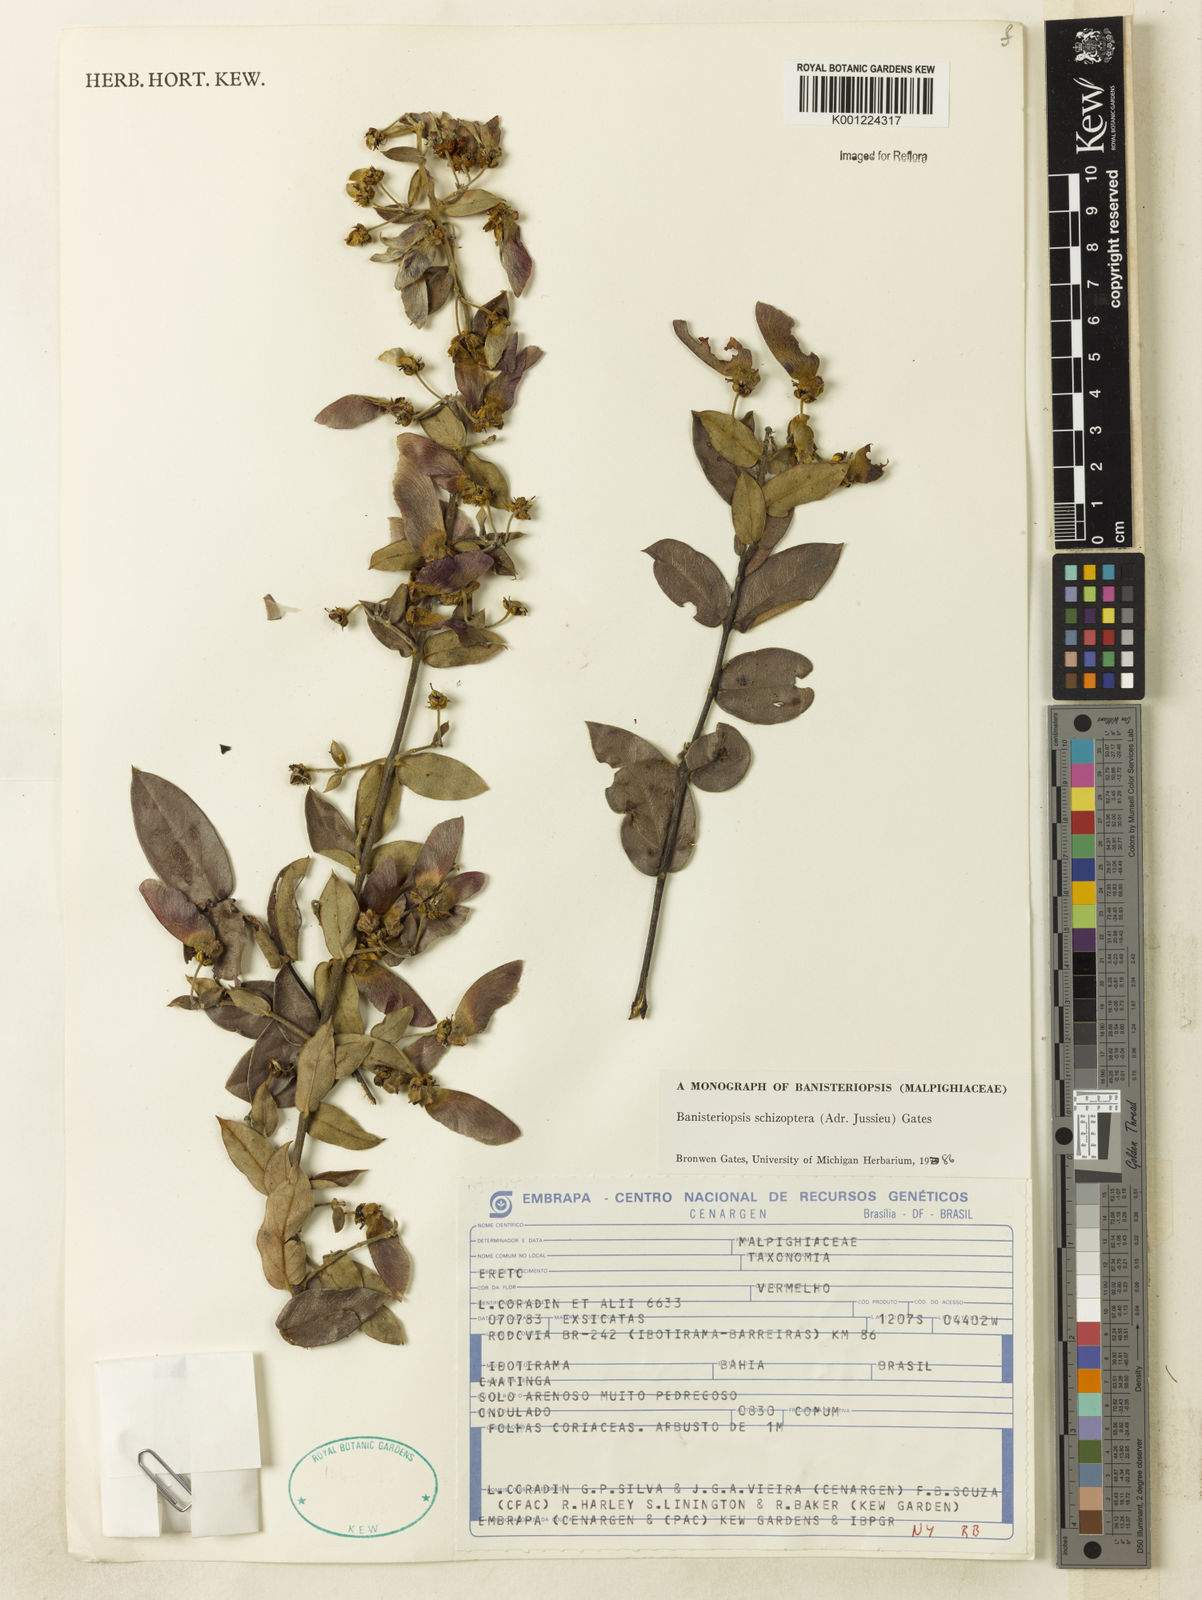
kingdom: Plantae
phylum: Tracheophyta
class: Magnoliopsida
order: Malpighiales
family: Malpighiaceae
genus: Banisteriopsis
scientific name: Banisteriopsis schizoptera
